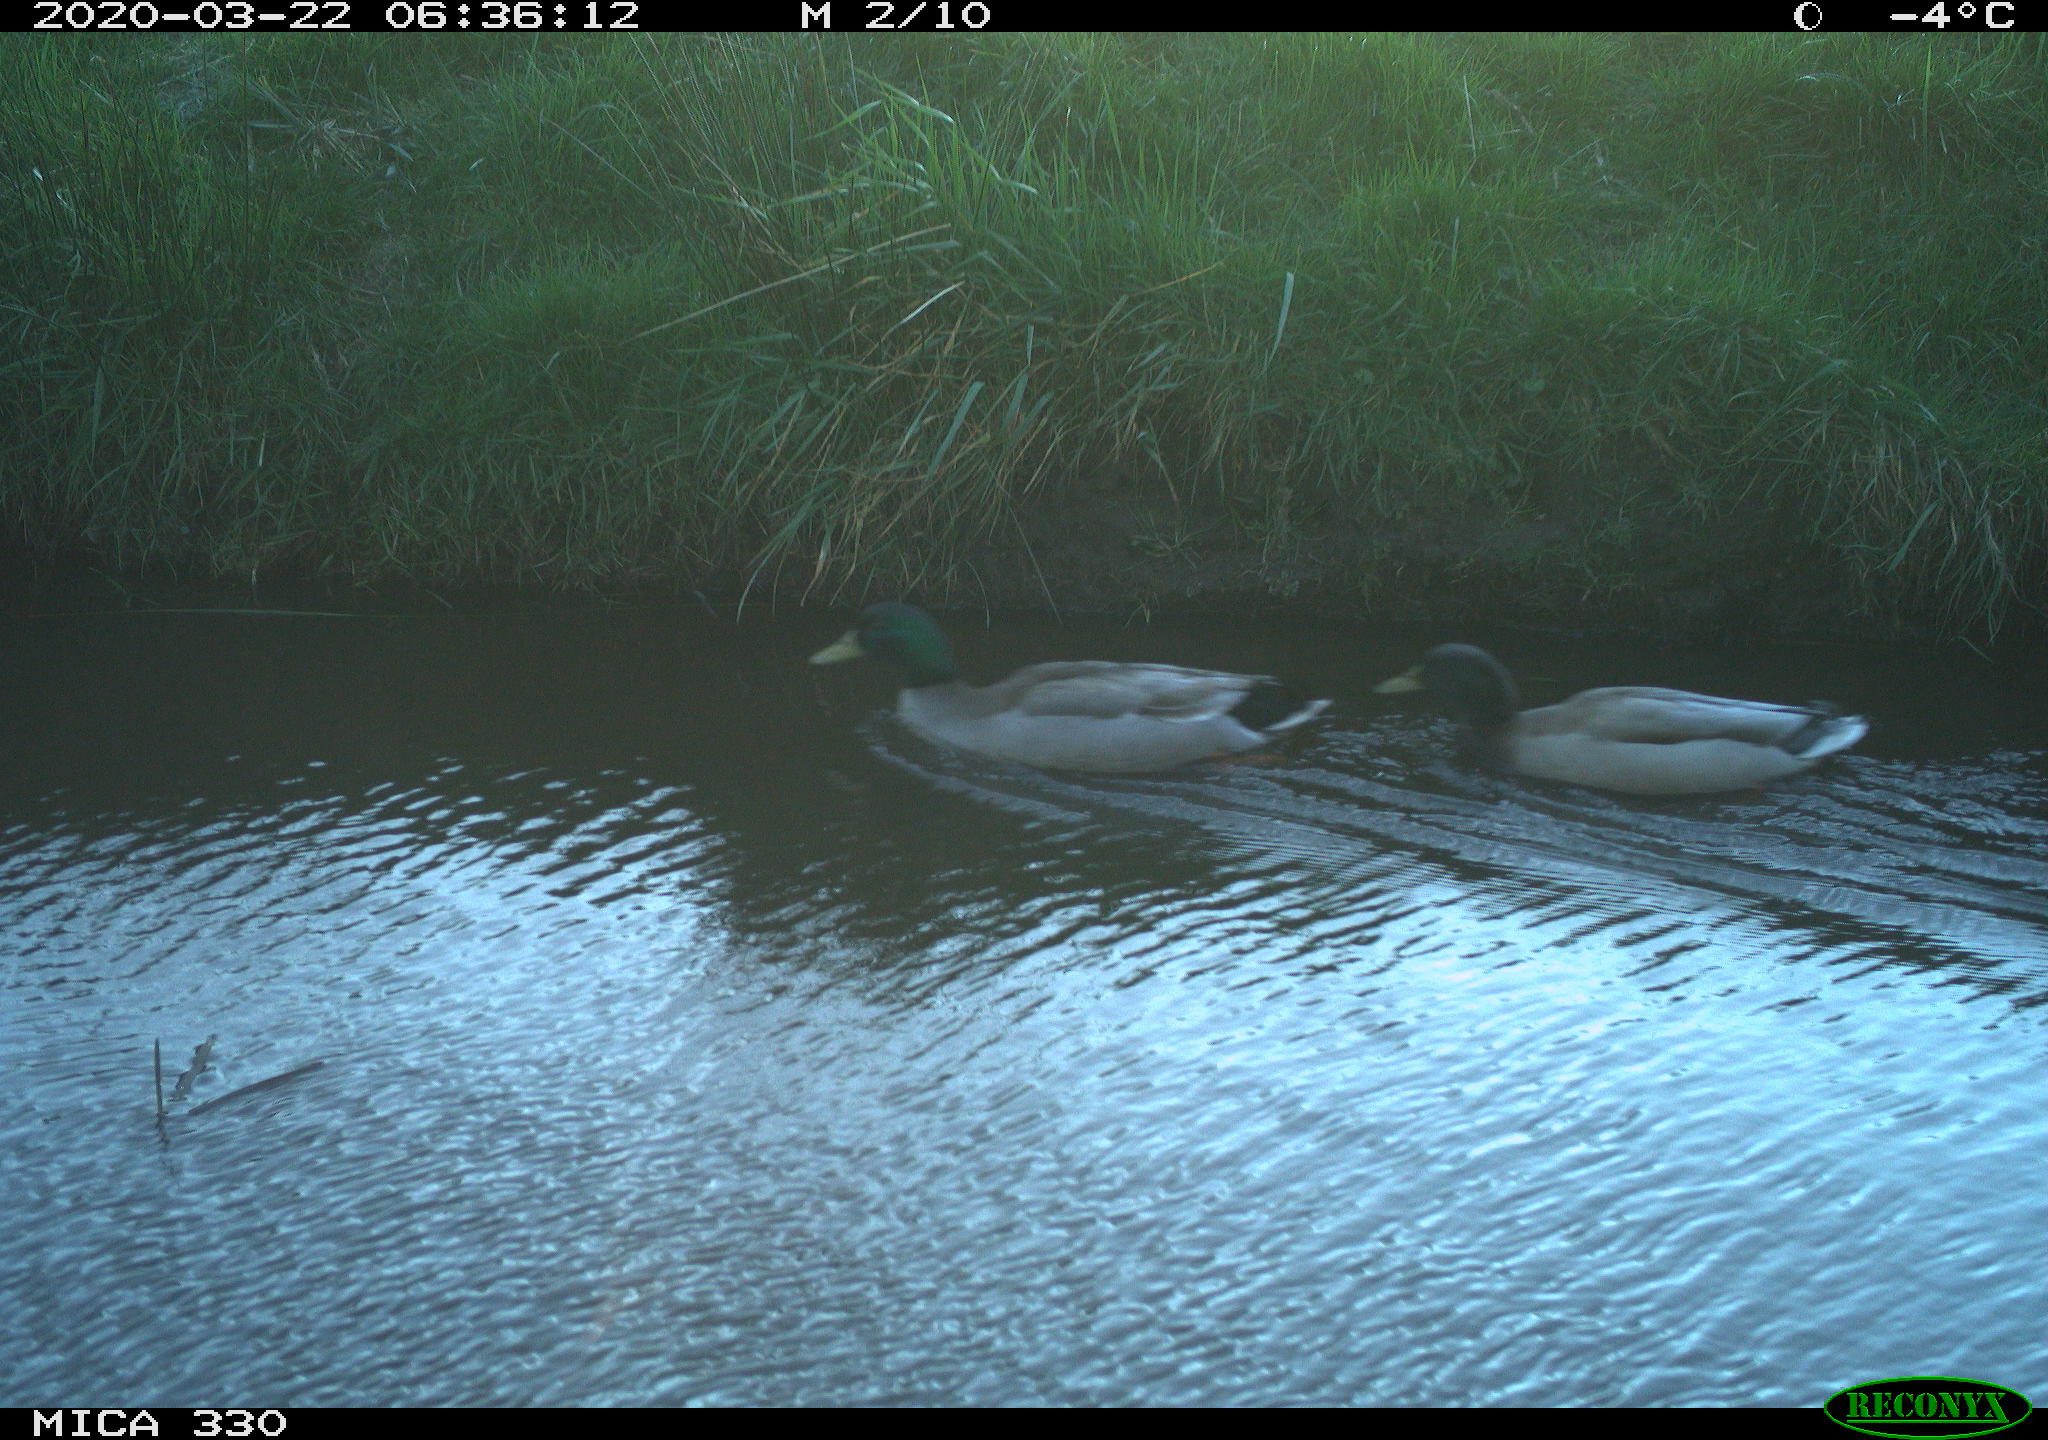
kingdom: Animalia
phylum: Chordata
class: Aves
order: Anseriformes
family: Anatidae
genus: Anas
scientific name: Anas platyrhynchos
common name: Mallard
